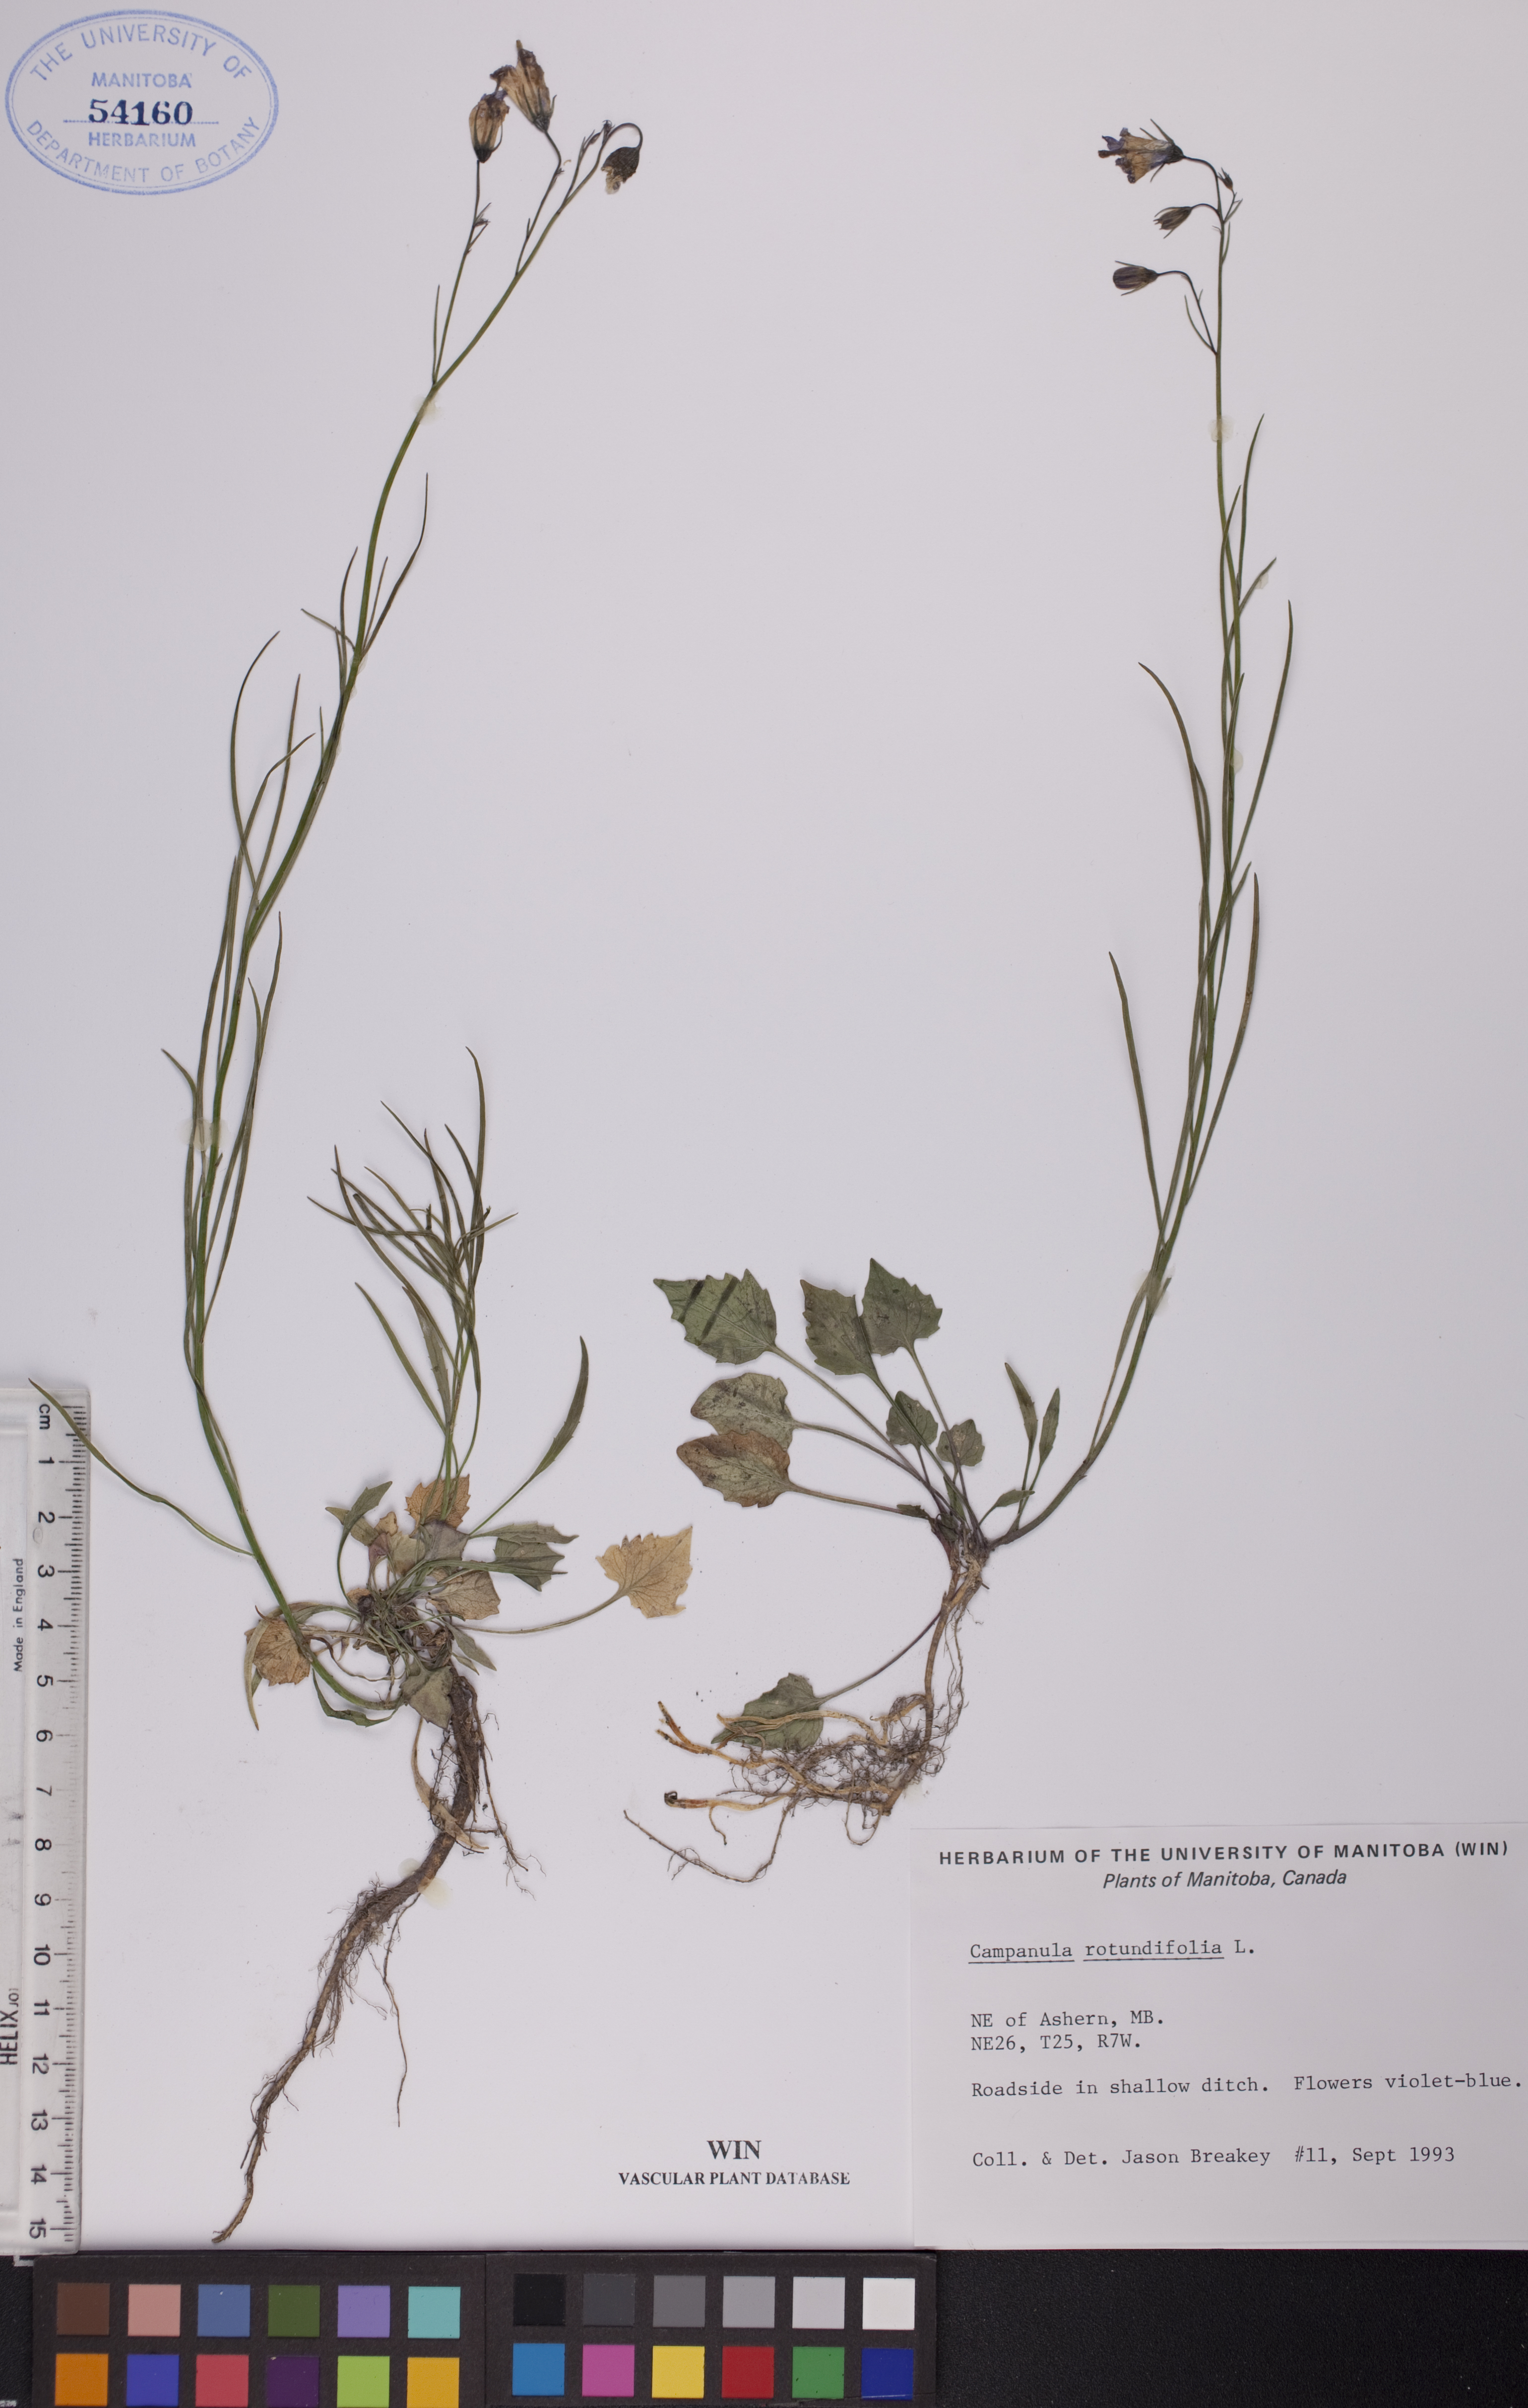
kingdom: Plantae
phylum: Tracheophyta
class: Magnoliopsida
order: Asterales
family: Campanulaceae
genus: Campanula
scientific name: Campanula rotundifolia
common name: Harebell
